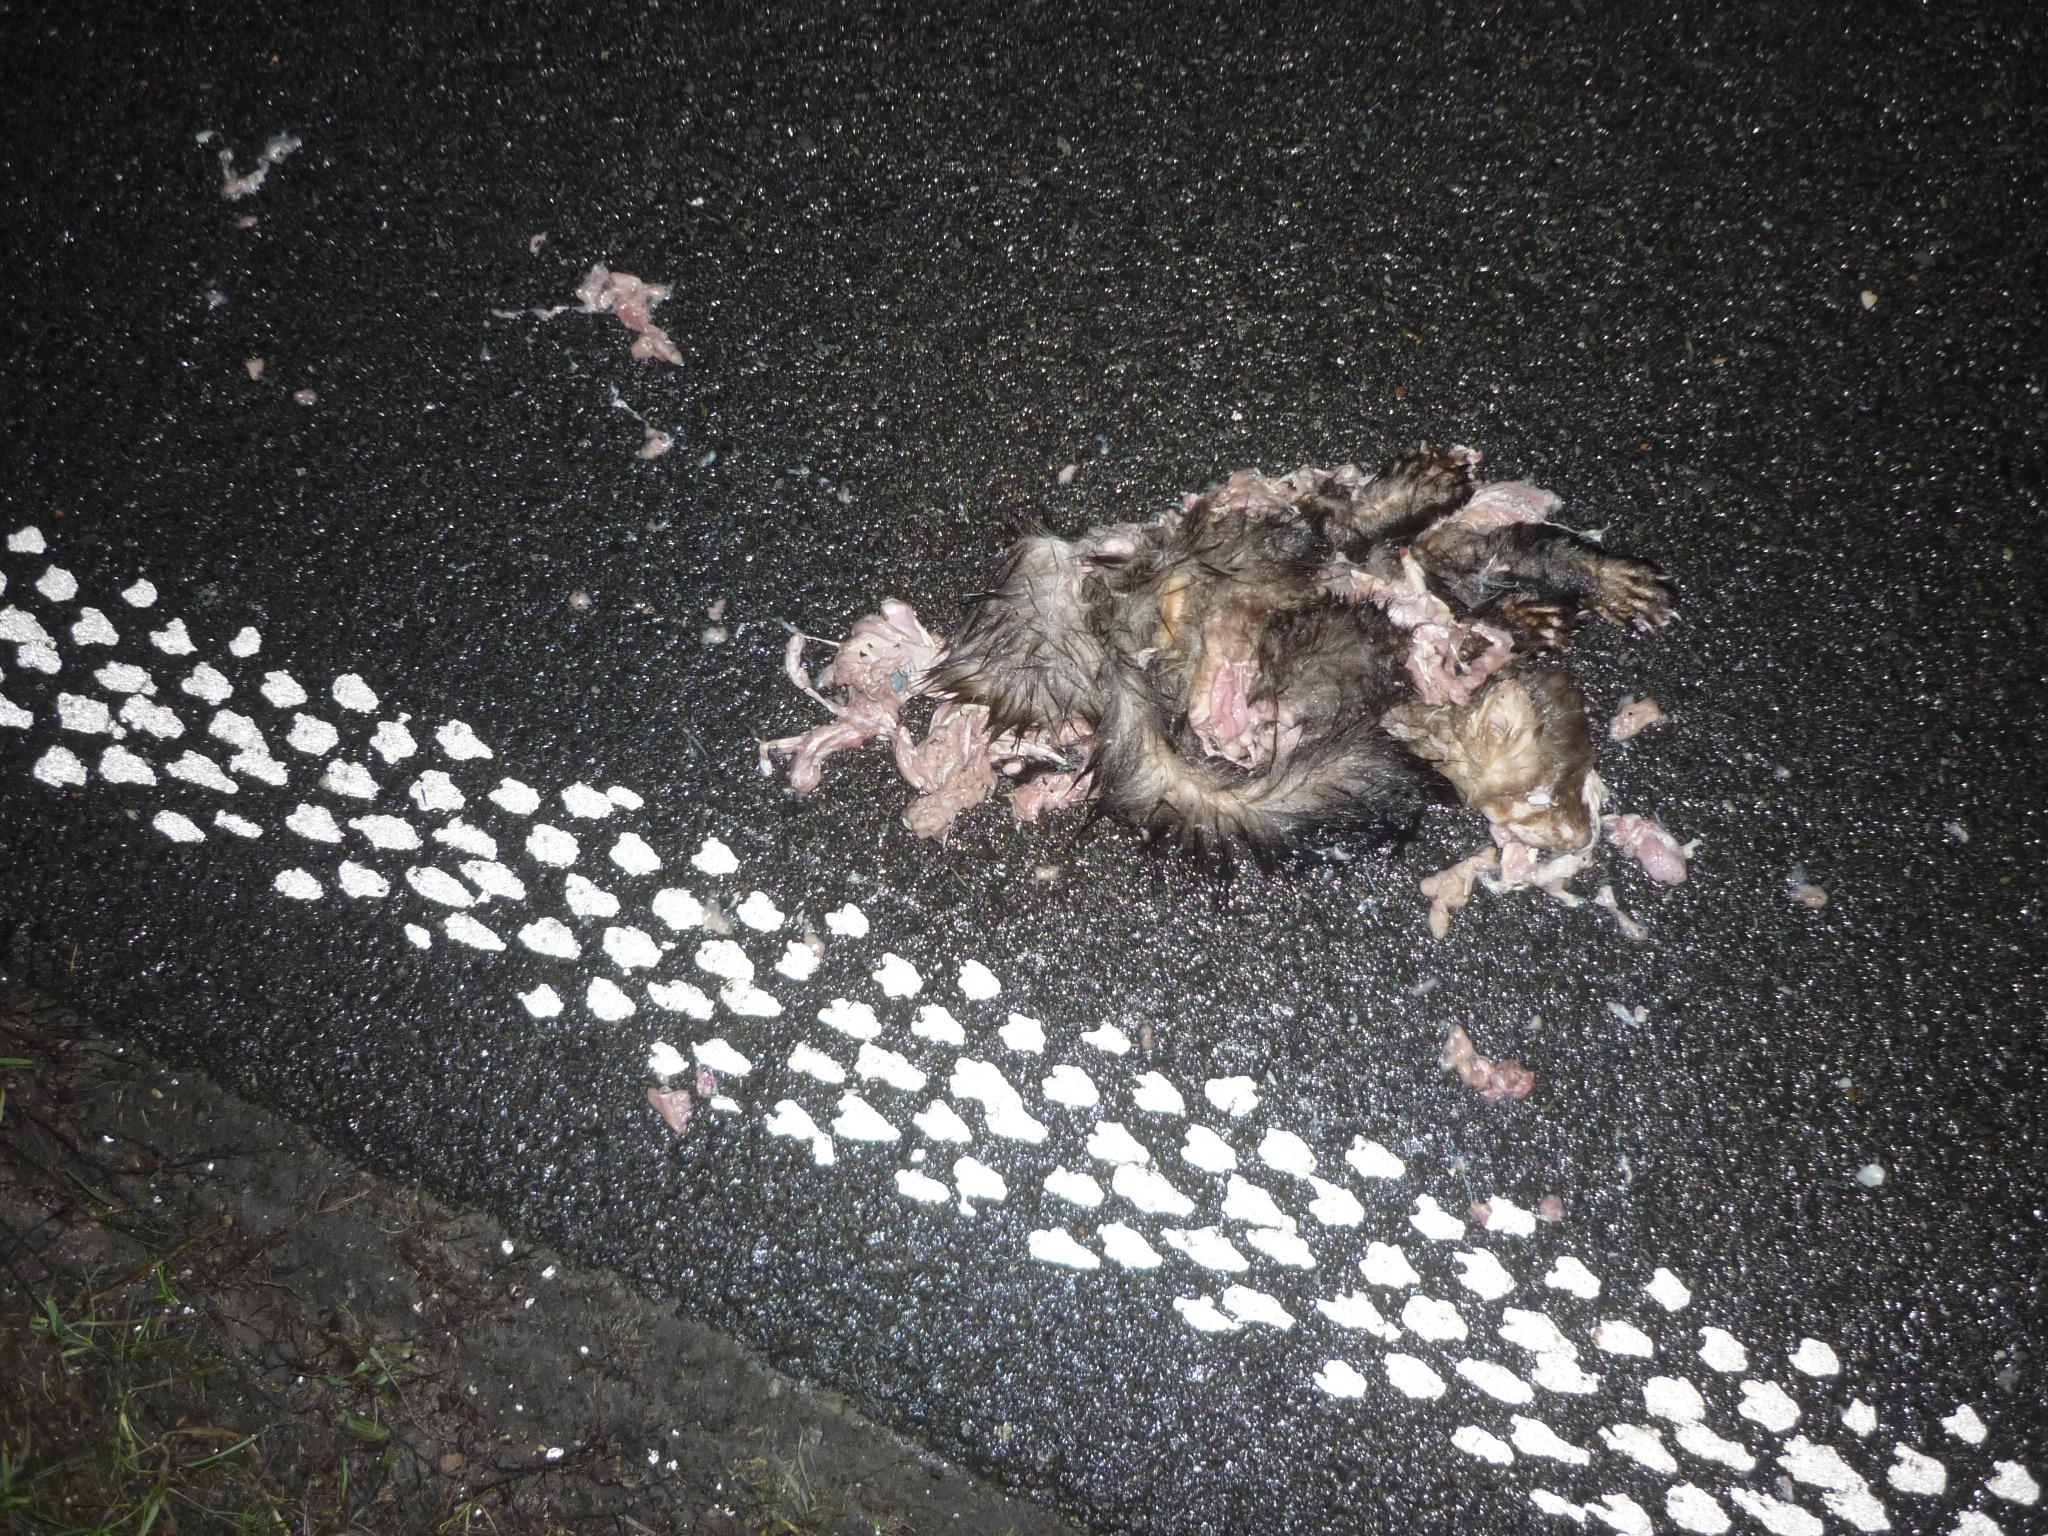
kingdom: Animalia
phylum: Chordata
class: Mammalia
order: Carnivora
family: Mustelidae
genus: Mustela
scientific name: Mustela putorius
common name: European polecat
